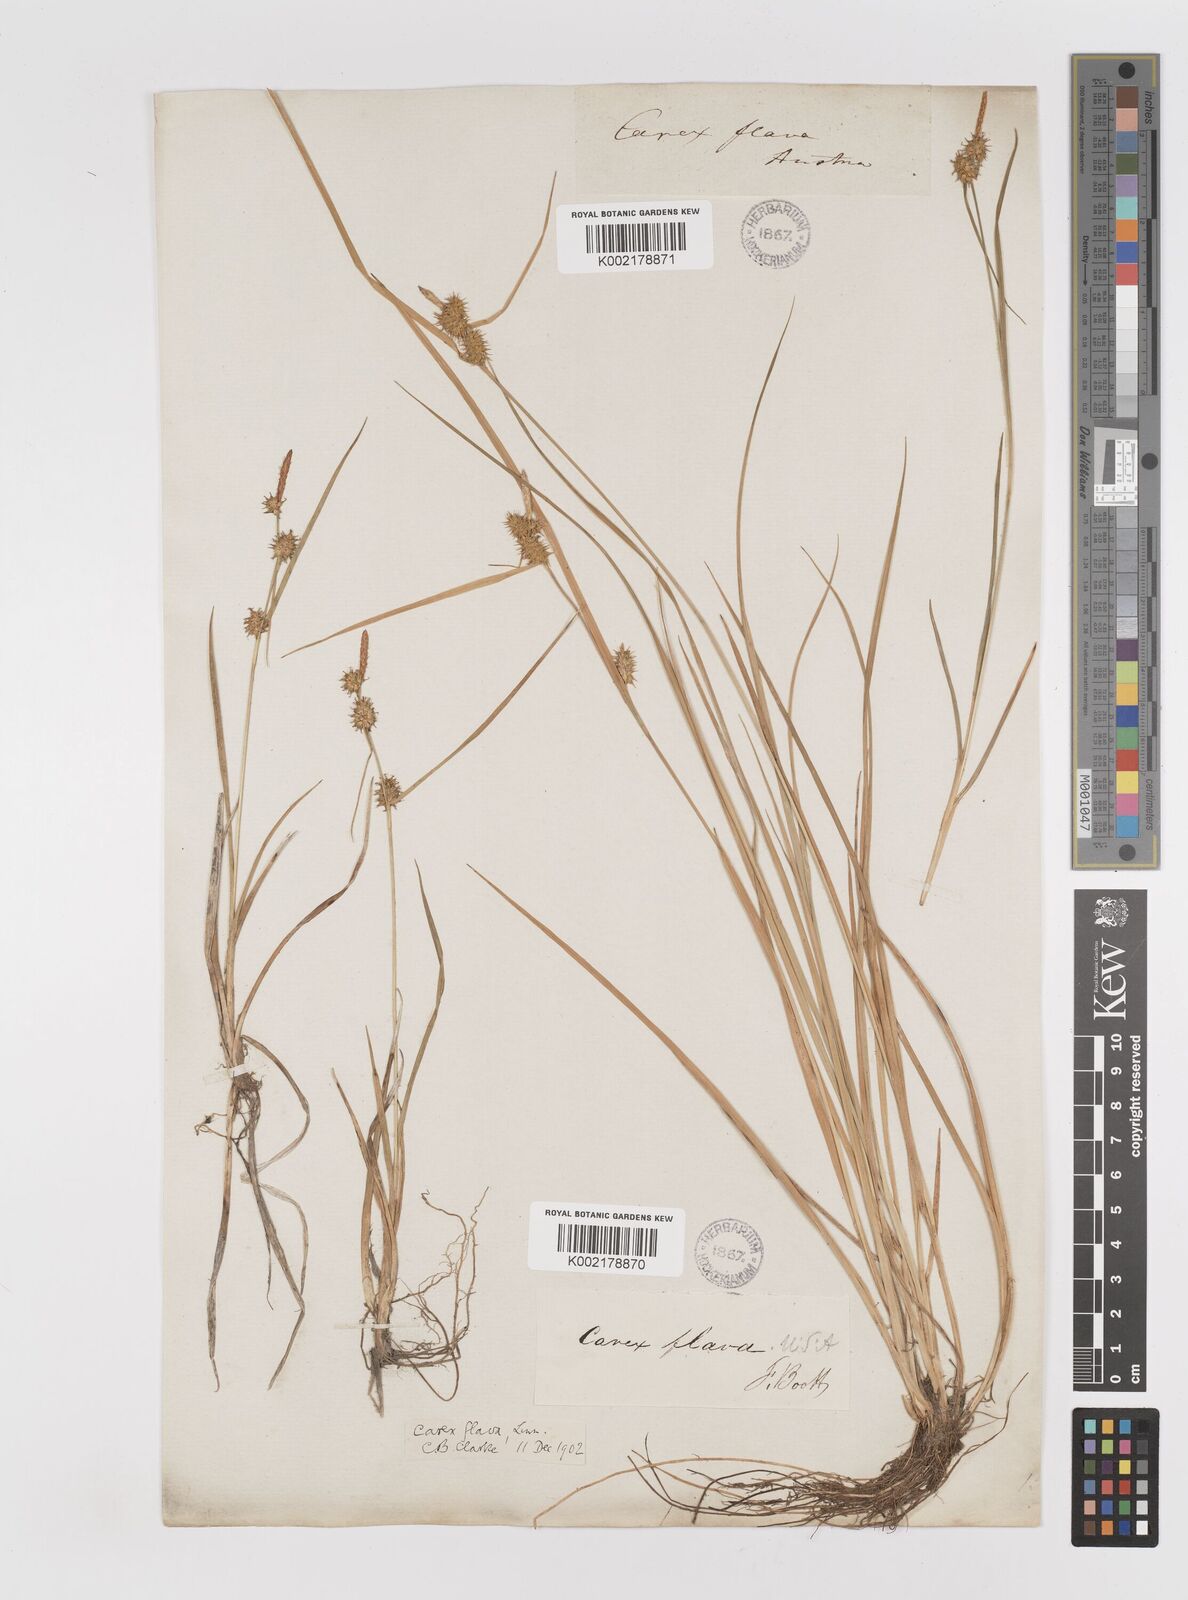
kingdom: Plantae
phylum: Tracheophyta
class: Liliopsida
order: Poales
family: Cyperaceae
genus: Carex
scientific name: Carex lepidocarpa
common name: Long-stalked yellow-sedge
